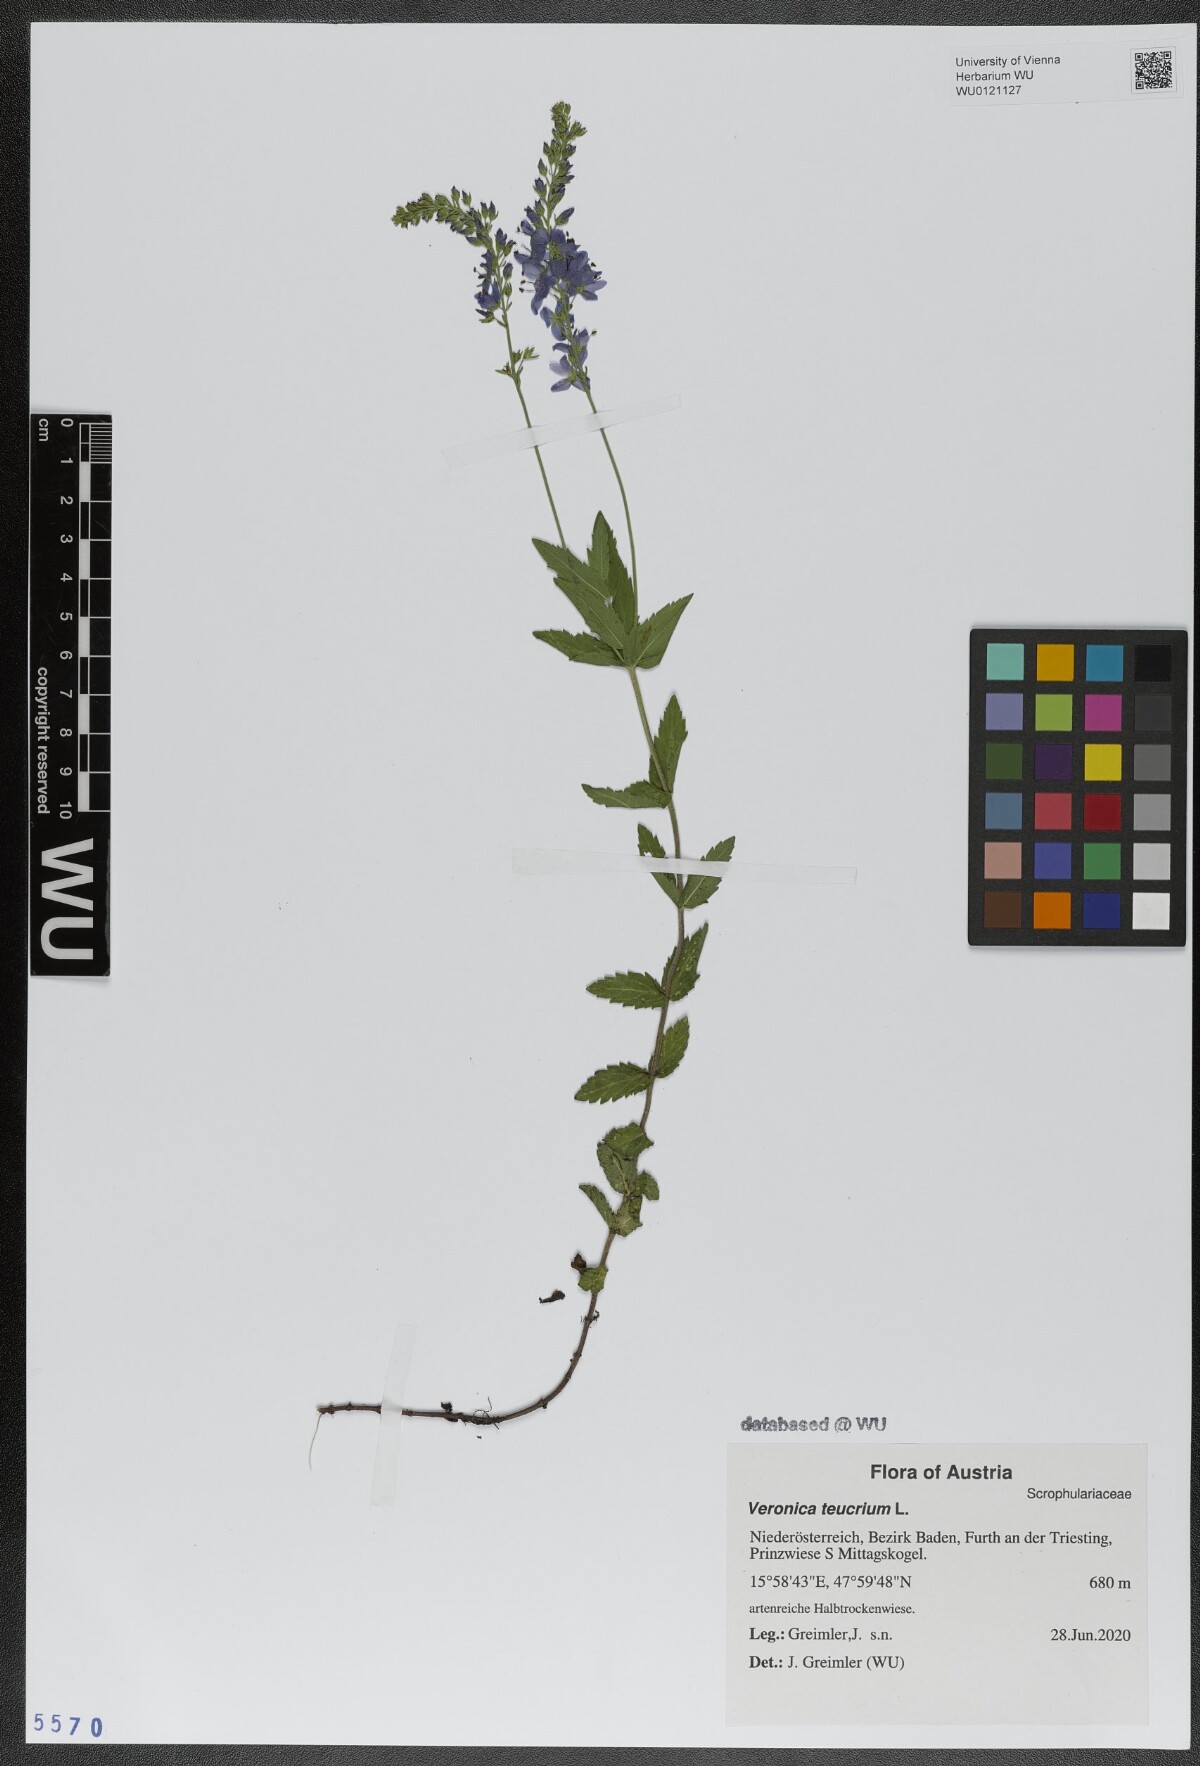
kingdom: Plantae
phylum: Tracheophyta
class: Magnoliopsida
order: Lamiales
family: Plantaginaceae
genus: Veronica
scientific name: Veronica teucrium
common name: Large speedwell
